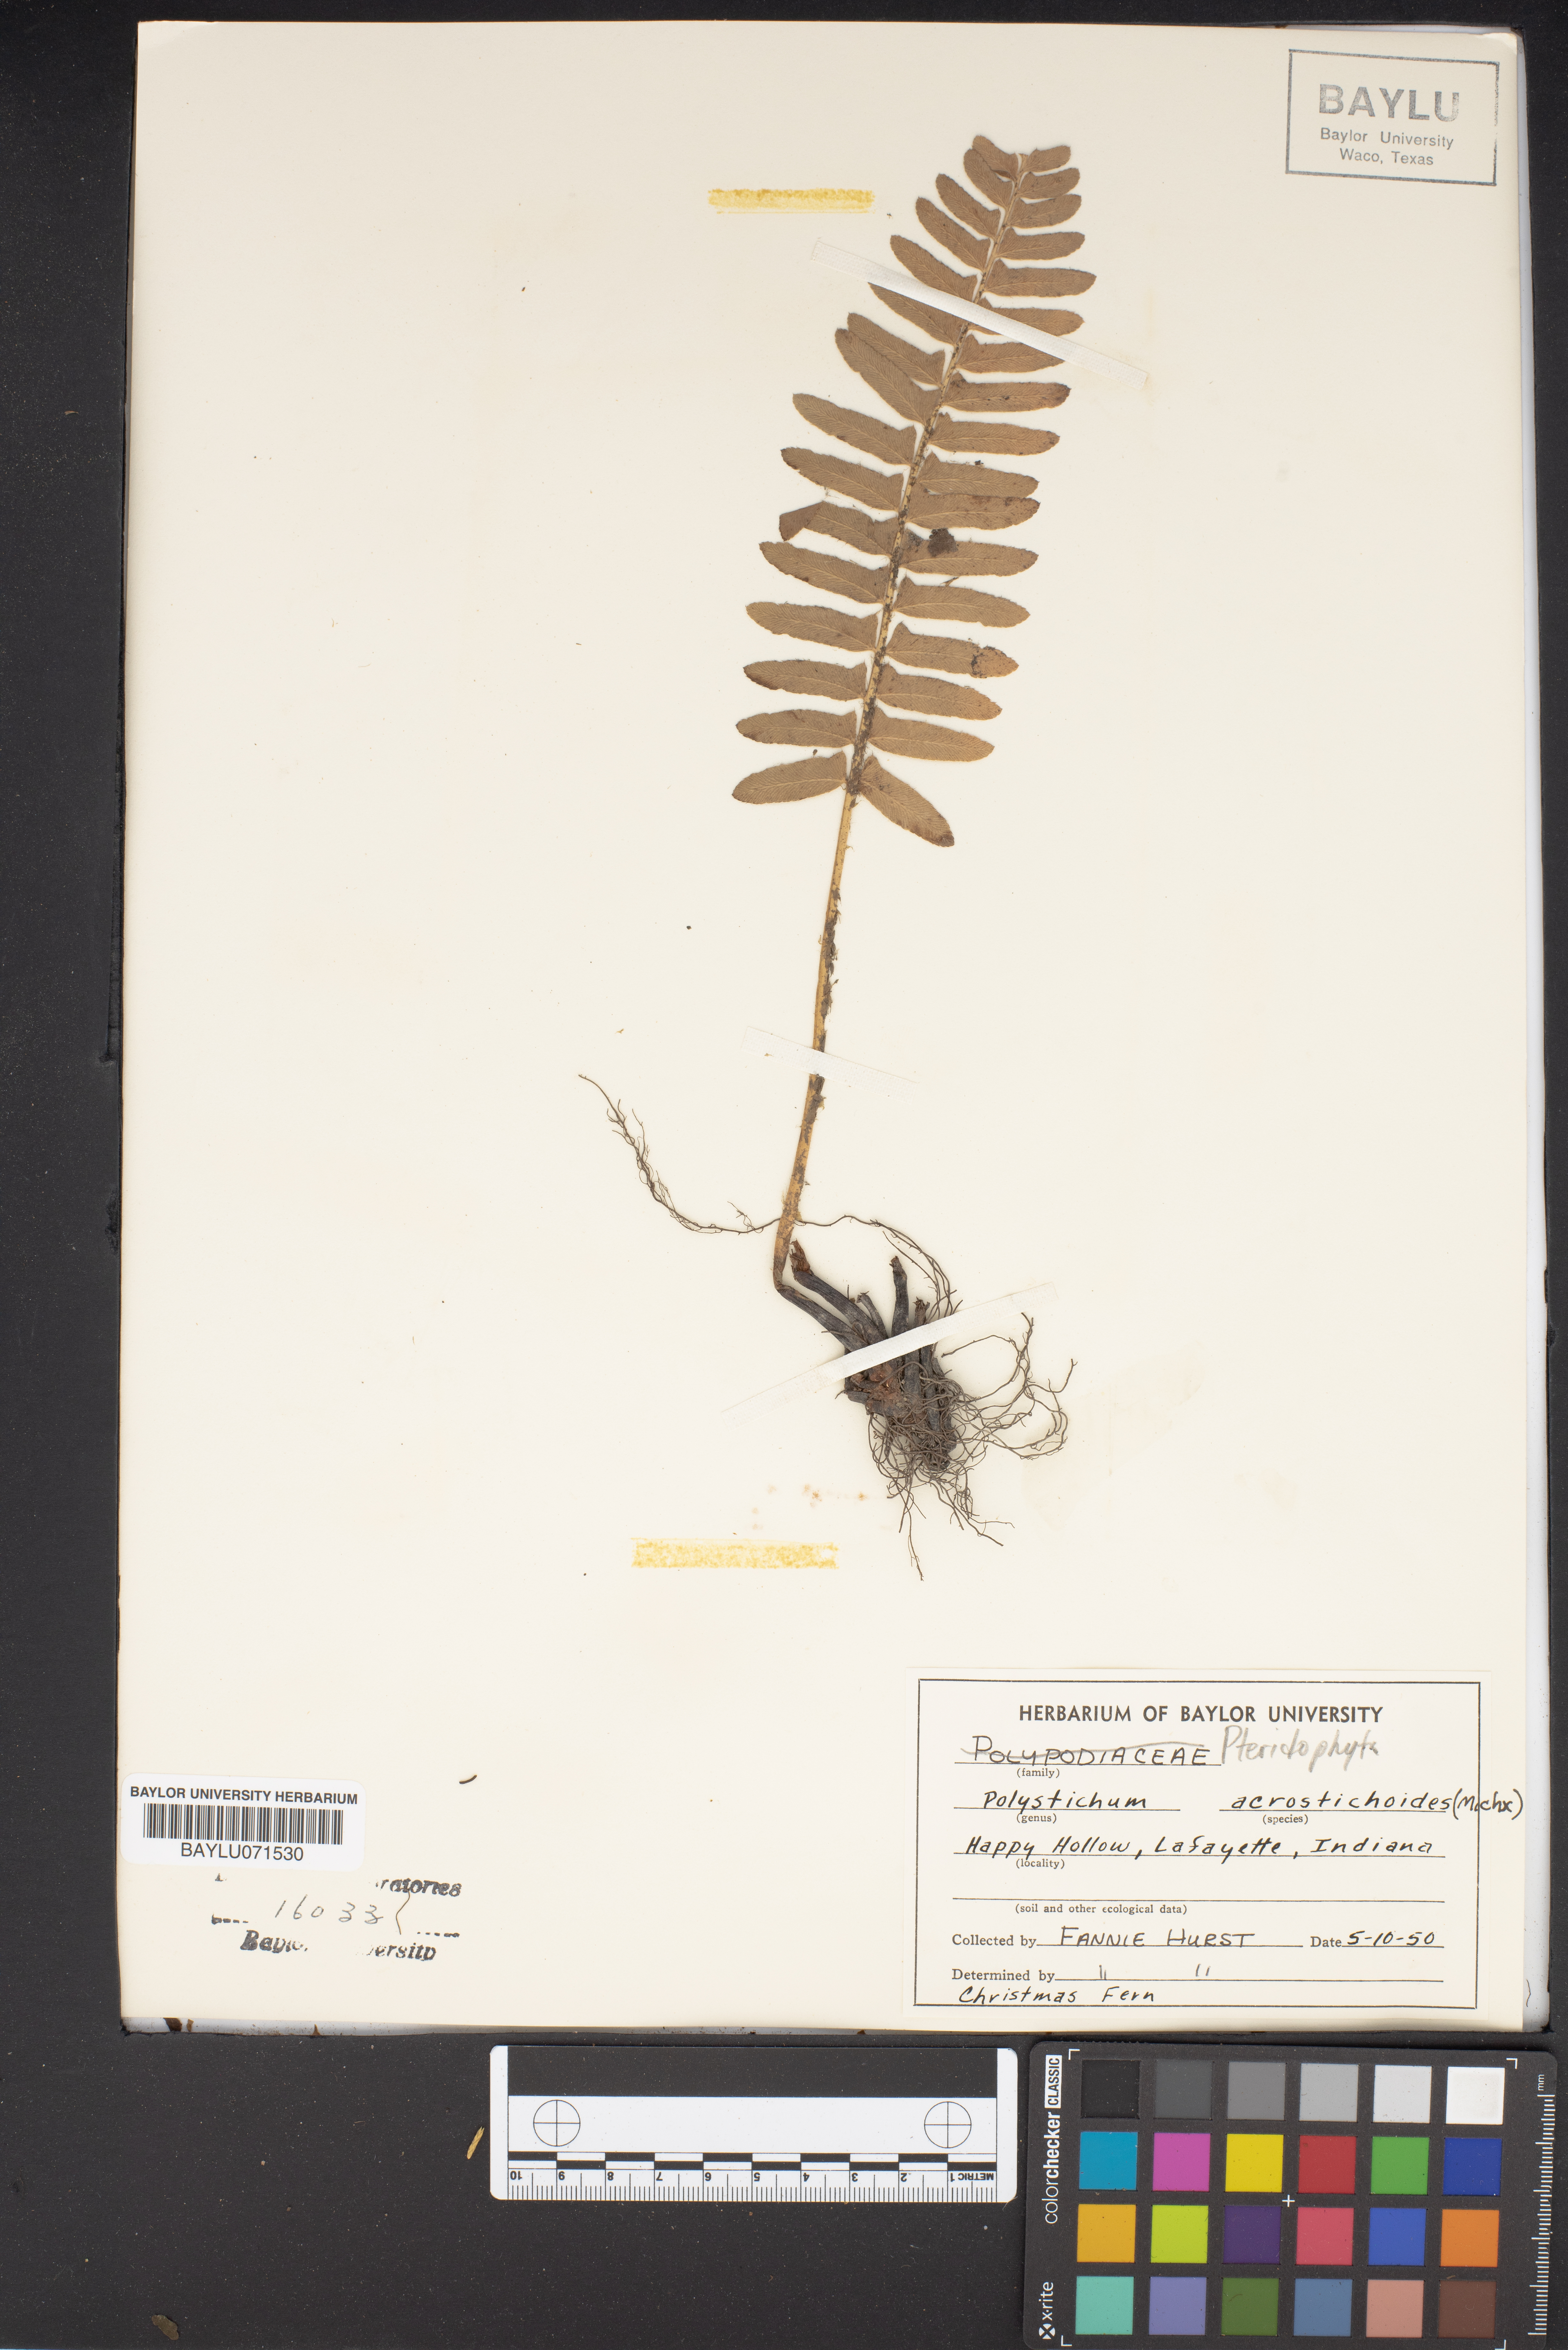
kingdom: Plantae
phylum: Tracheophyta
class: Polypodiopsida
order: Polypodiales
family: Dryopteridaceae
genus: Polystichum
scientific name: Polystichum acrostichoides
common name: Christmas fern
